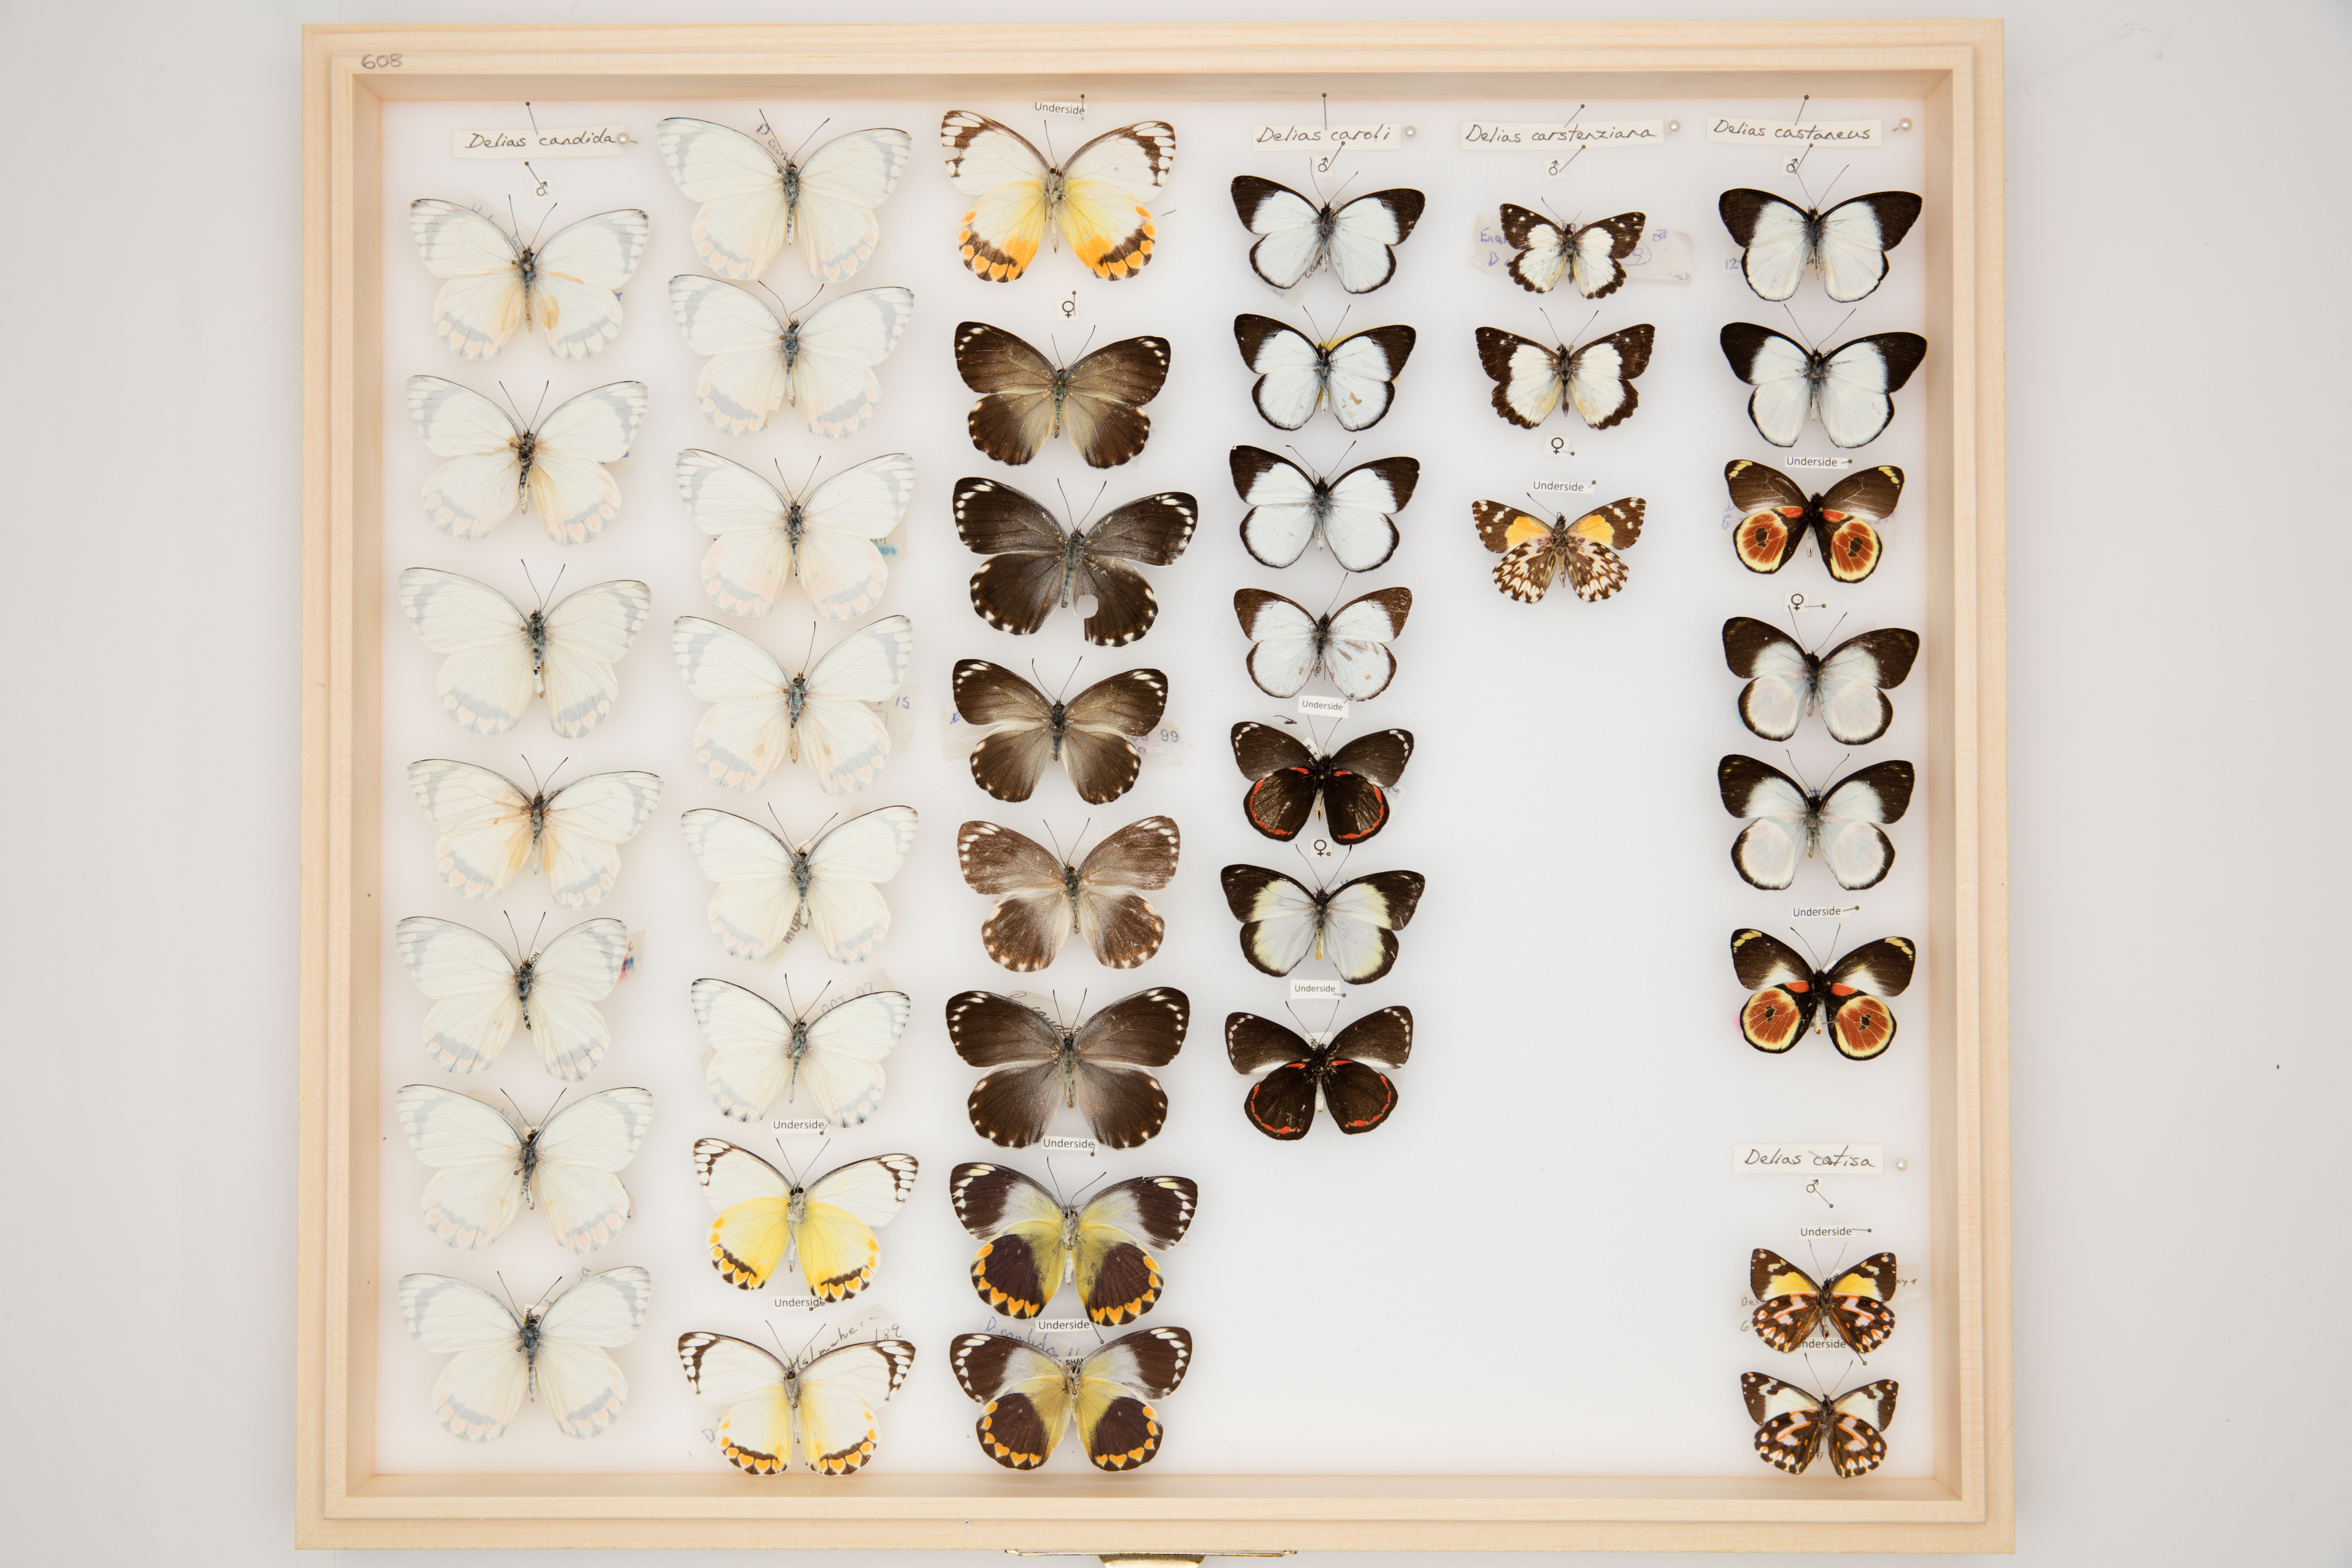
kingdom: Animalia
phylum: Arthropoda
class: Insecta
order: Lepidoptera
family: Pieridae
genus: Delias
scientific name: Delias catisa
